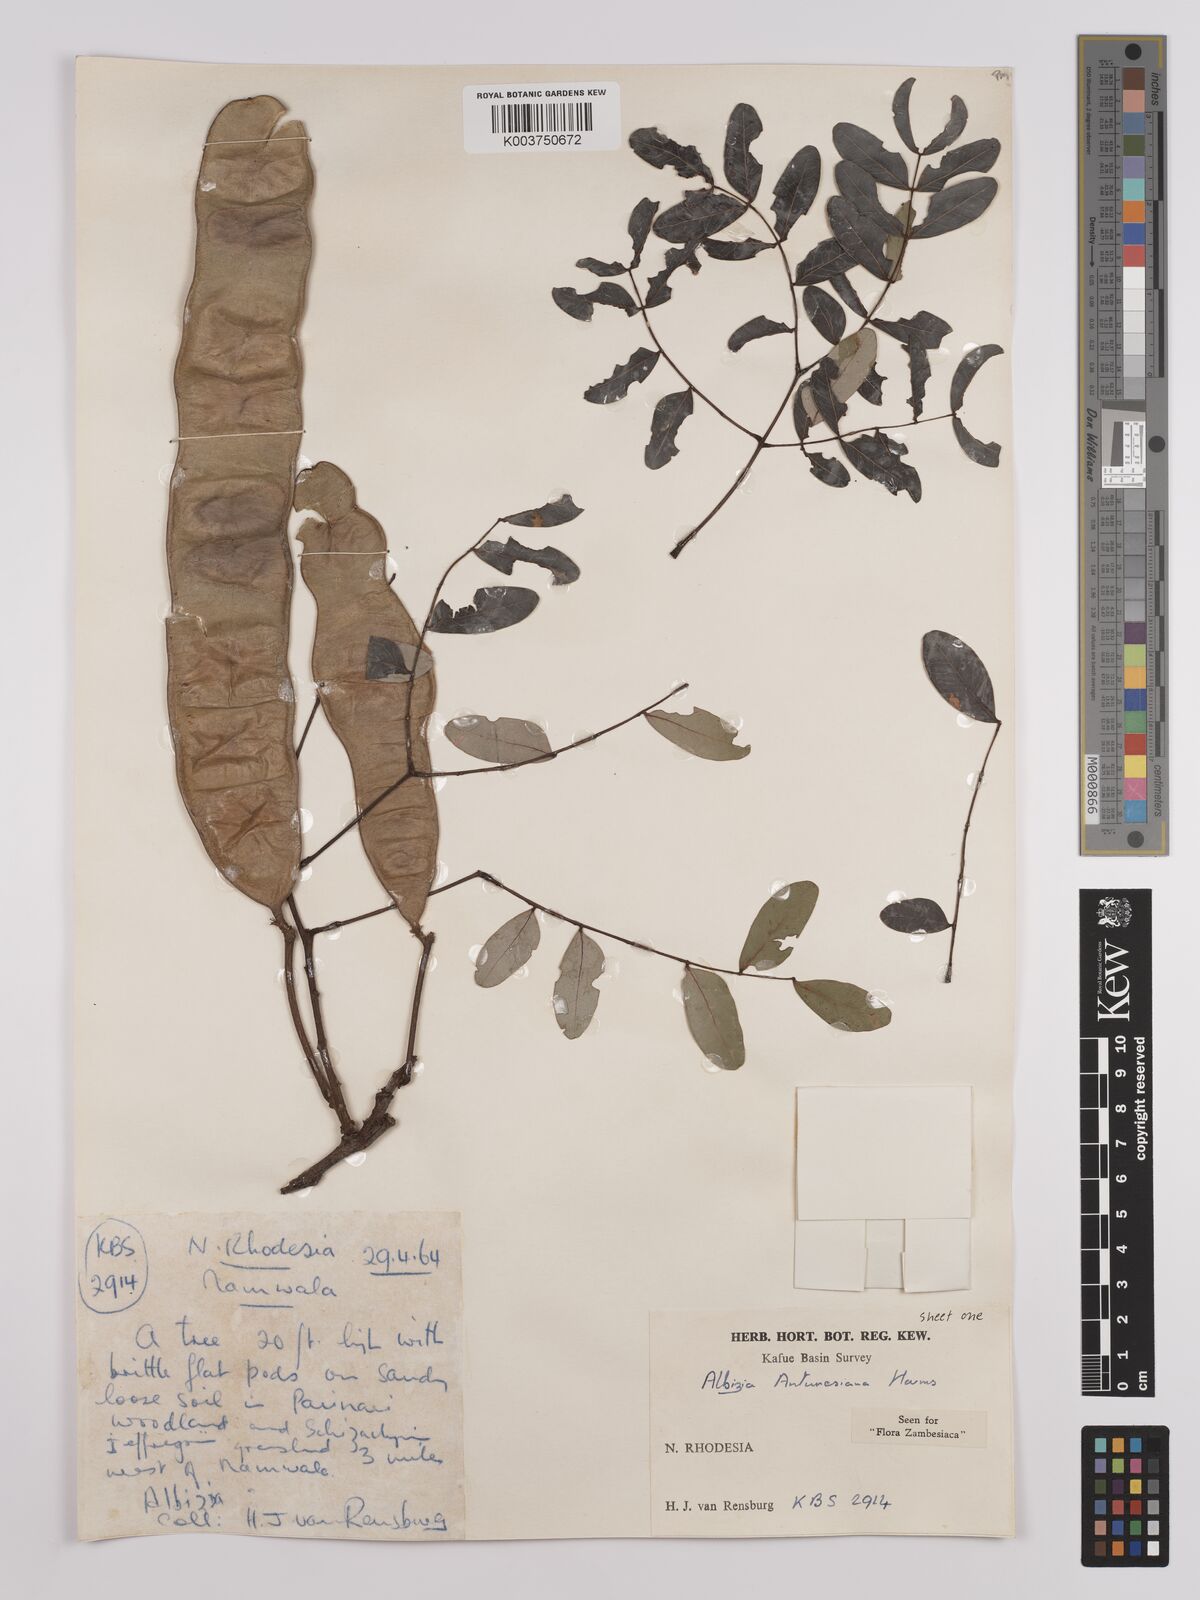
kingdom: Plantae
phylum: Tracheophyta
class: Magnoliopsida
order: Fabales
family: Fabaceae
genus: Albizia
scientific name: Albizia antunesiana
